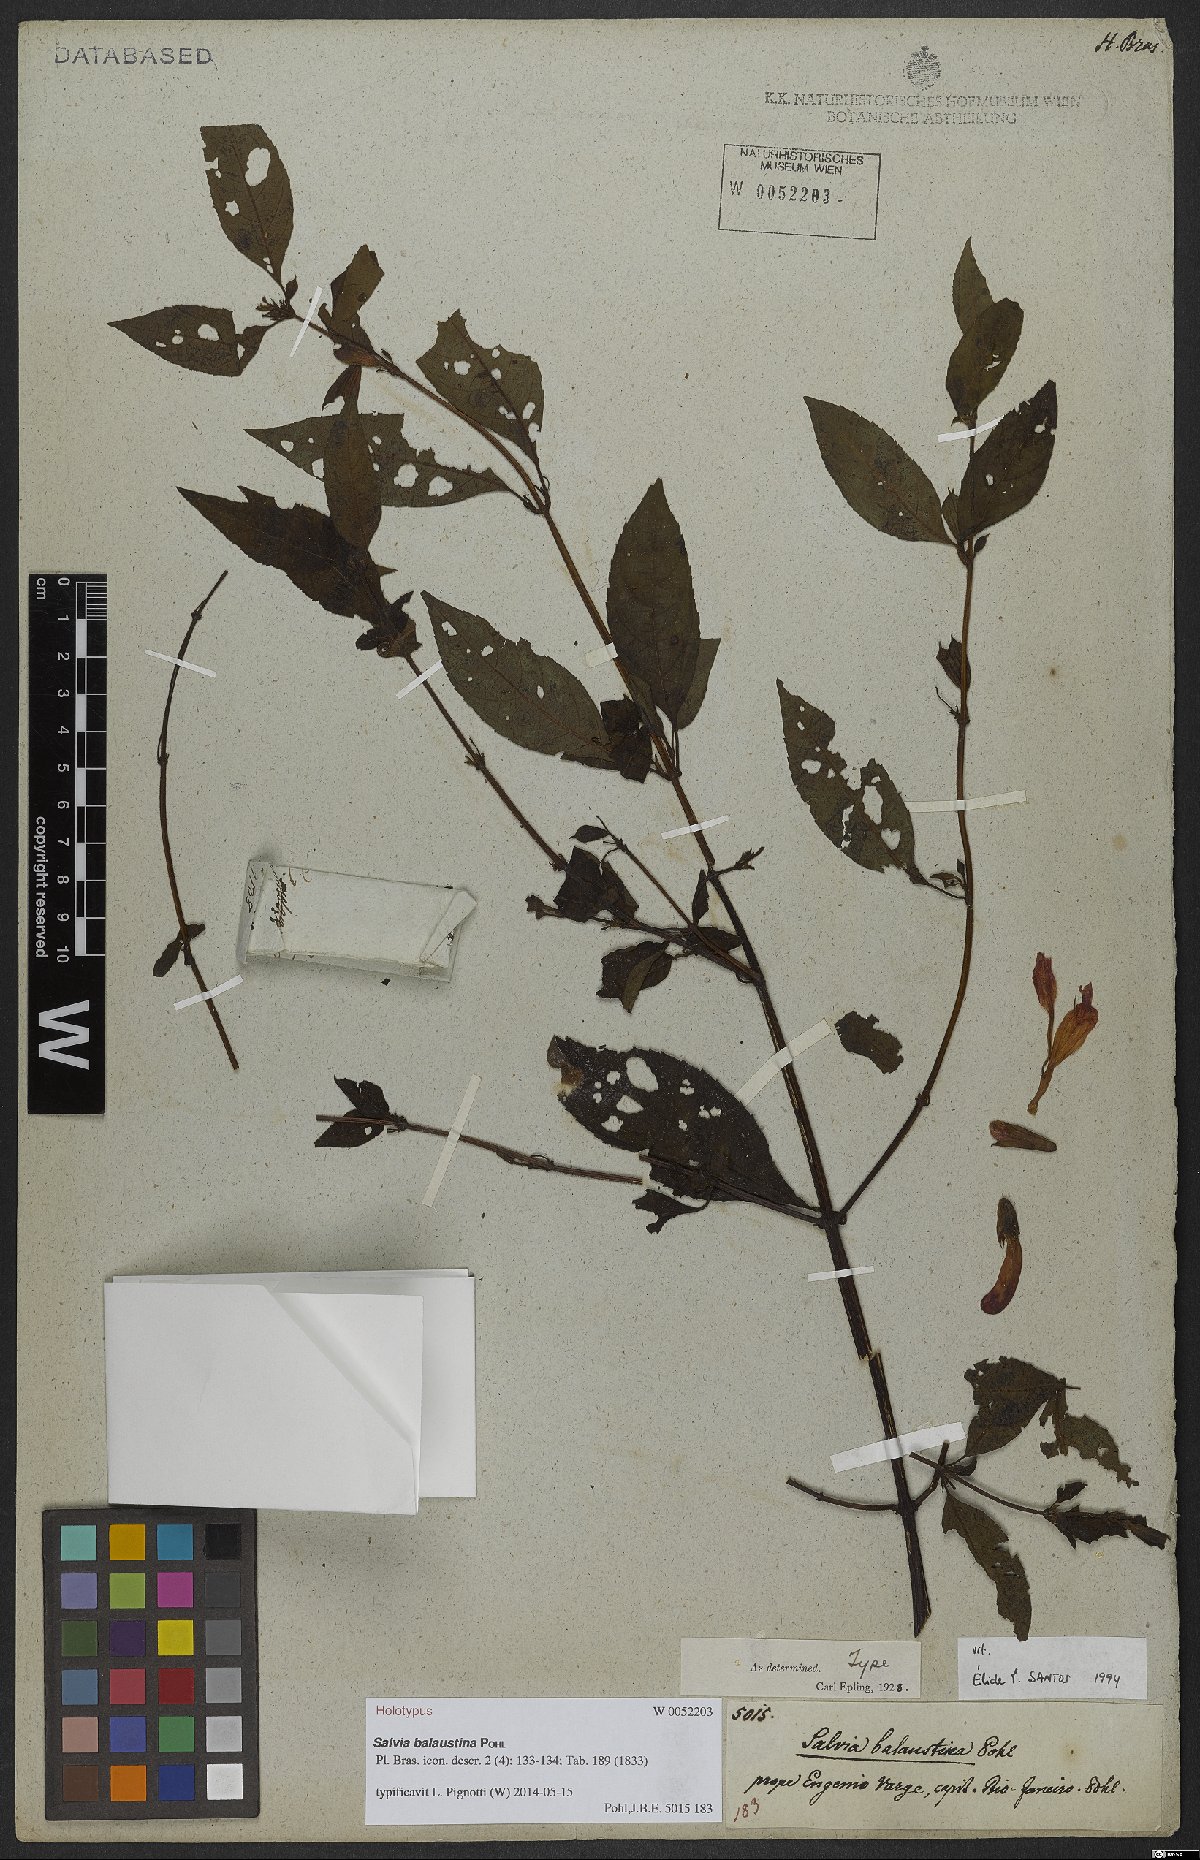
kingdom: Plantae
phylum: Tracheophyta
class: Magnoliopsida
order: Lamiales
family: Lamiaceae
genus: Salvia
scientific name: Salvia balaustina
